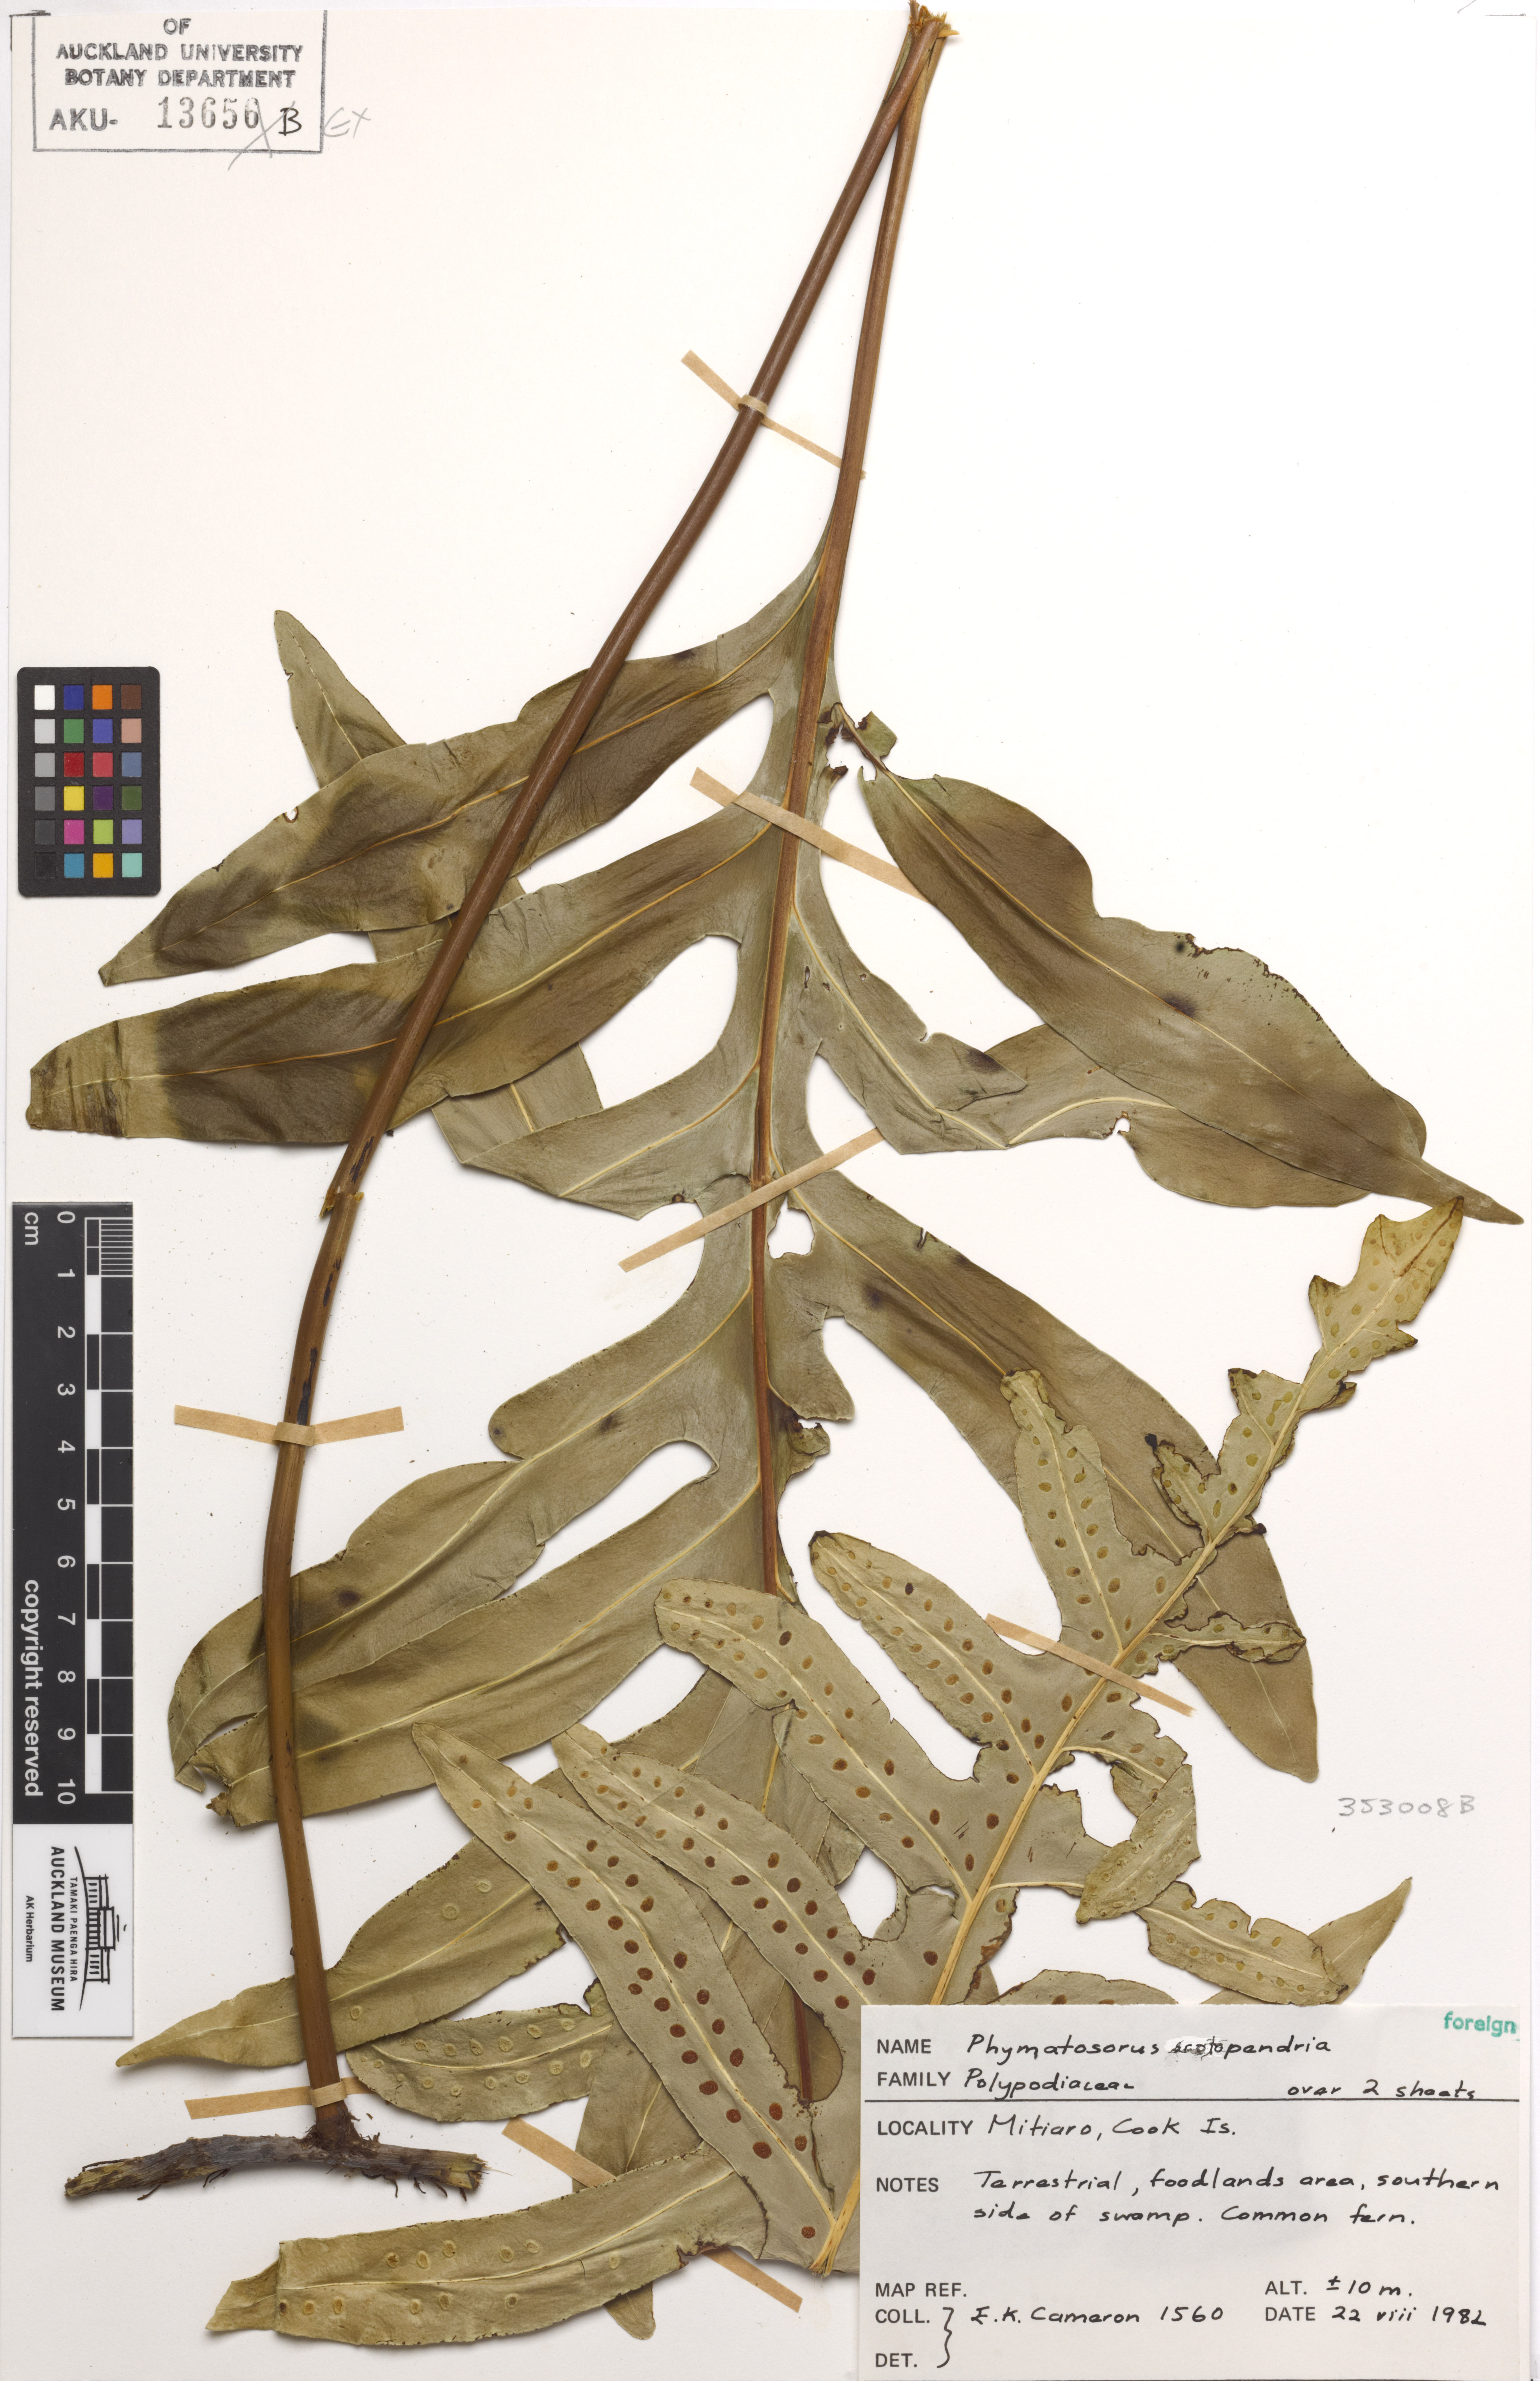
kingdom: Plantae
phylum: Tracheophyta
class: Polypodiopsida
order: Polypodiales
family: Polypodiaceae
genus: Microsorum
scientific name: Microsorum scolopendria
